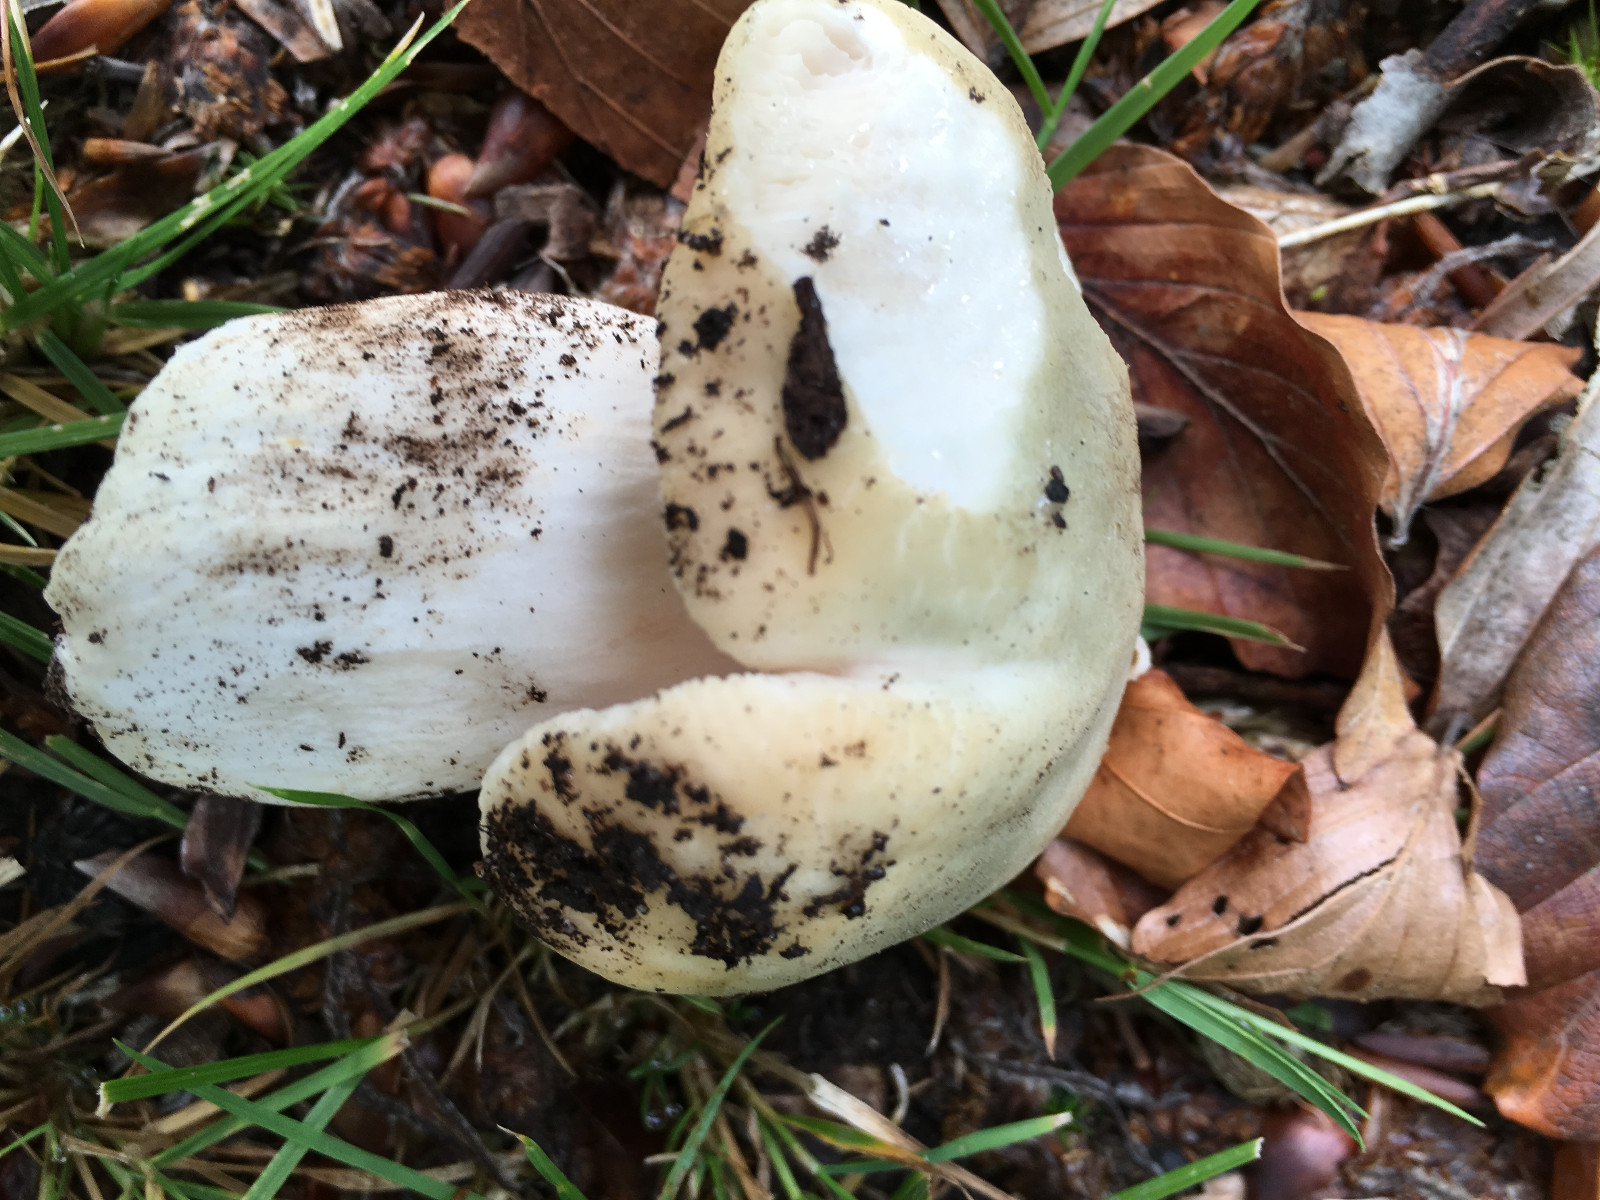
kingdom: Fungi
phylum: Basidiomycota
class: Agaricomycetes
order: Russulales
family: Russulaceae
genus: Russula
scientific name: Russula virescens
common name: spanskgrøn skørhat
